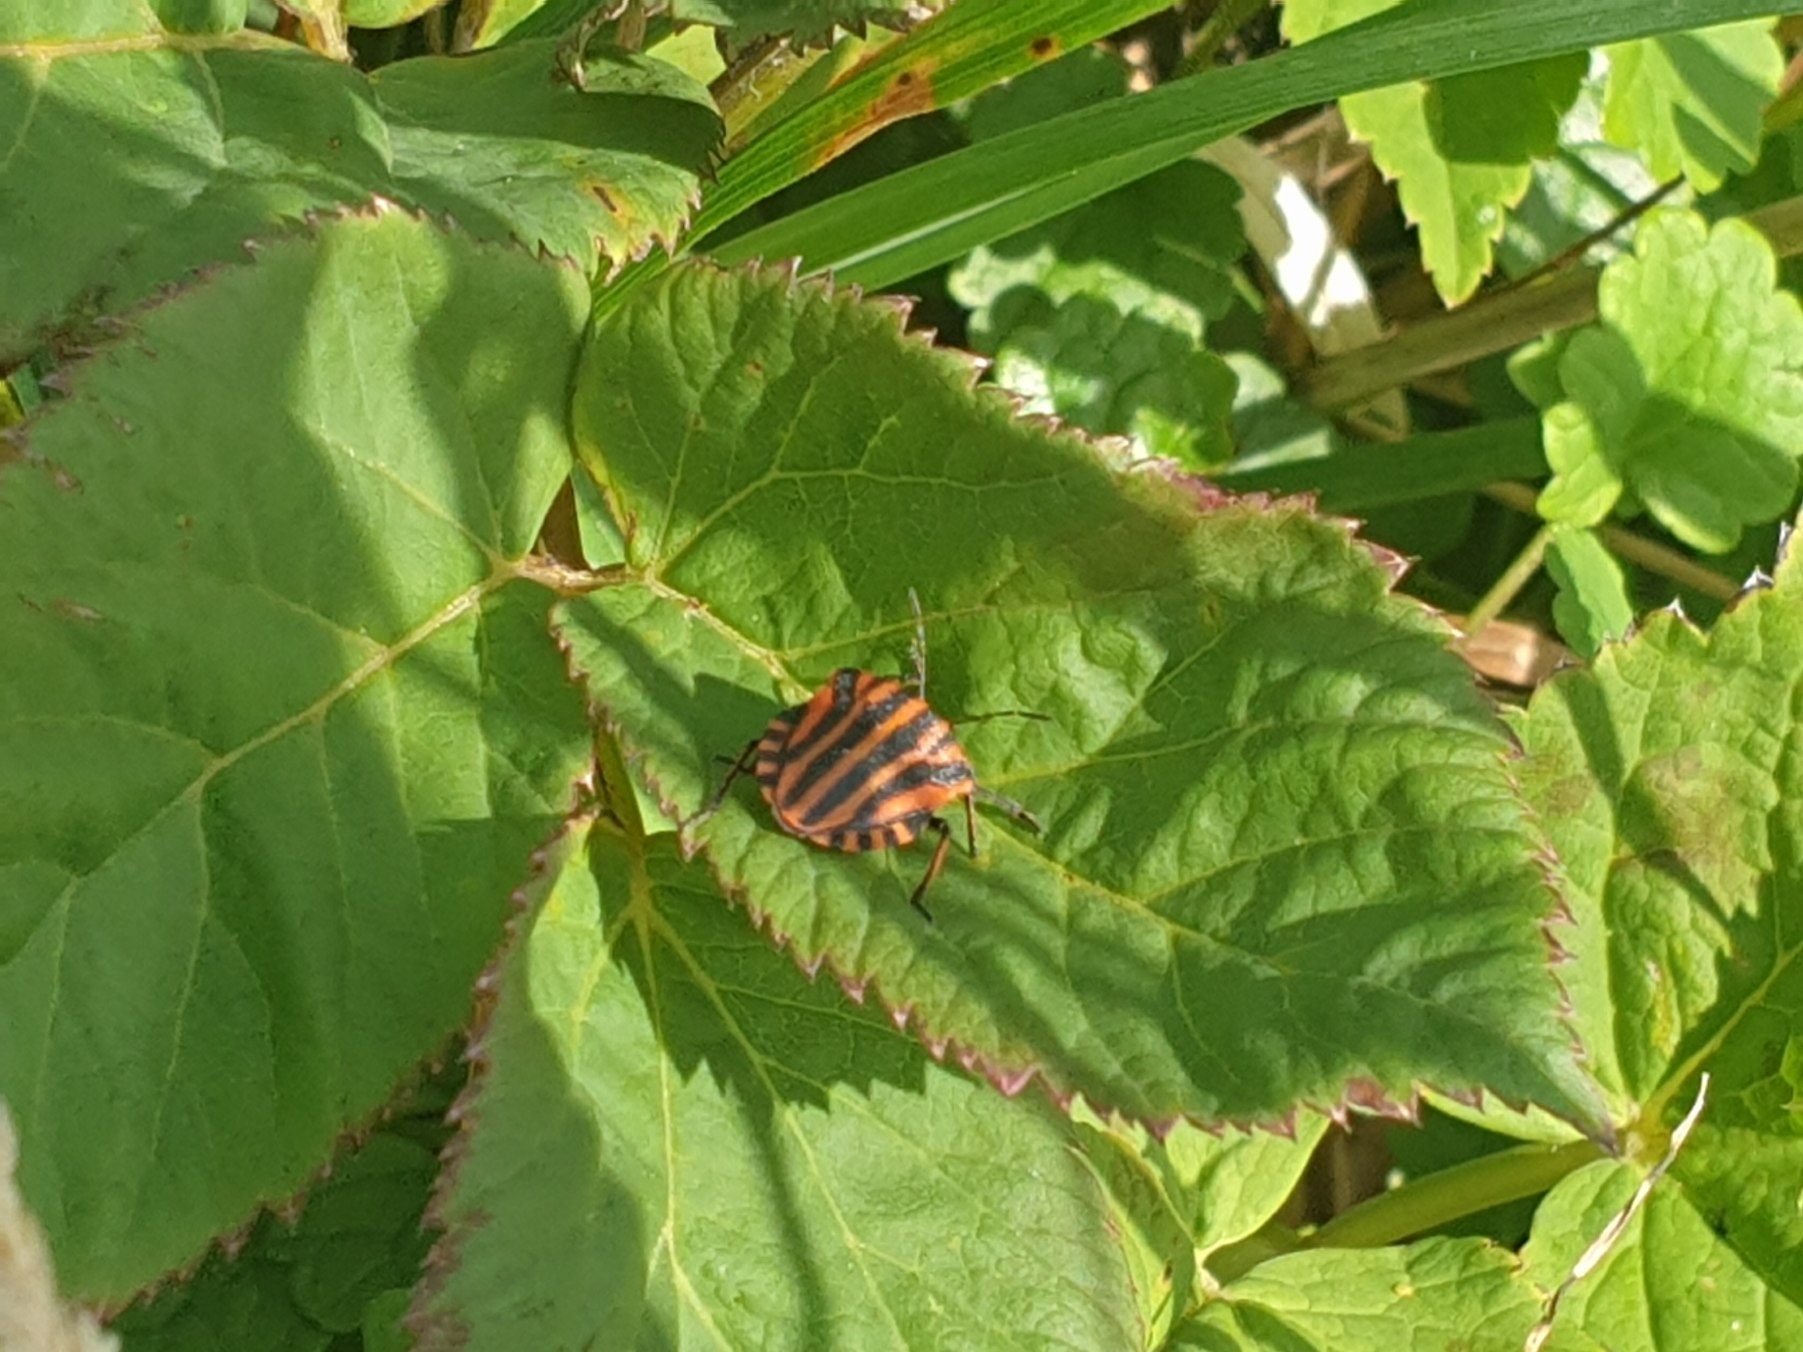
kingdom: Animalia
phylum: Arthropoda
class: Insecta
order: Hemiptera
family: Pentatomidae
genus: Graphosoma
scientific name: Graphosoma italicum
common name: Stribetæge
